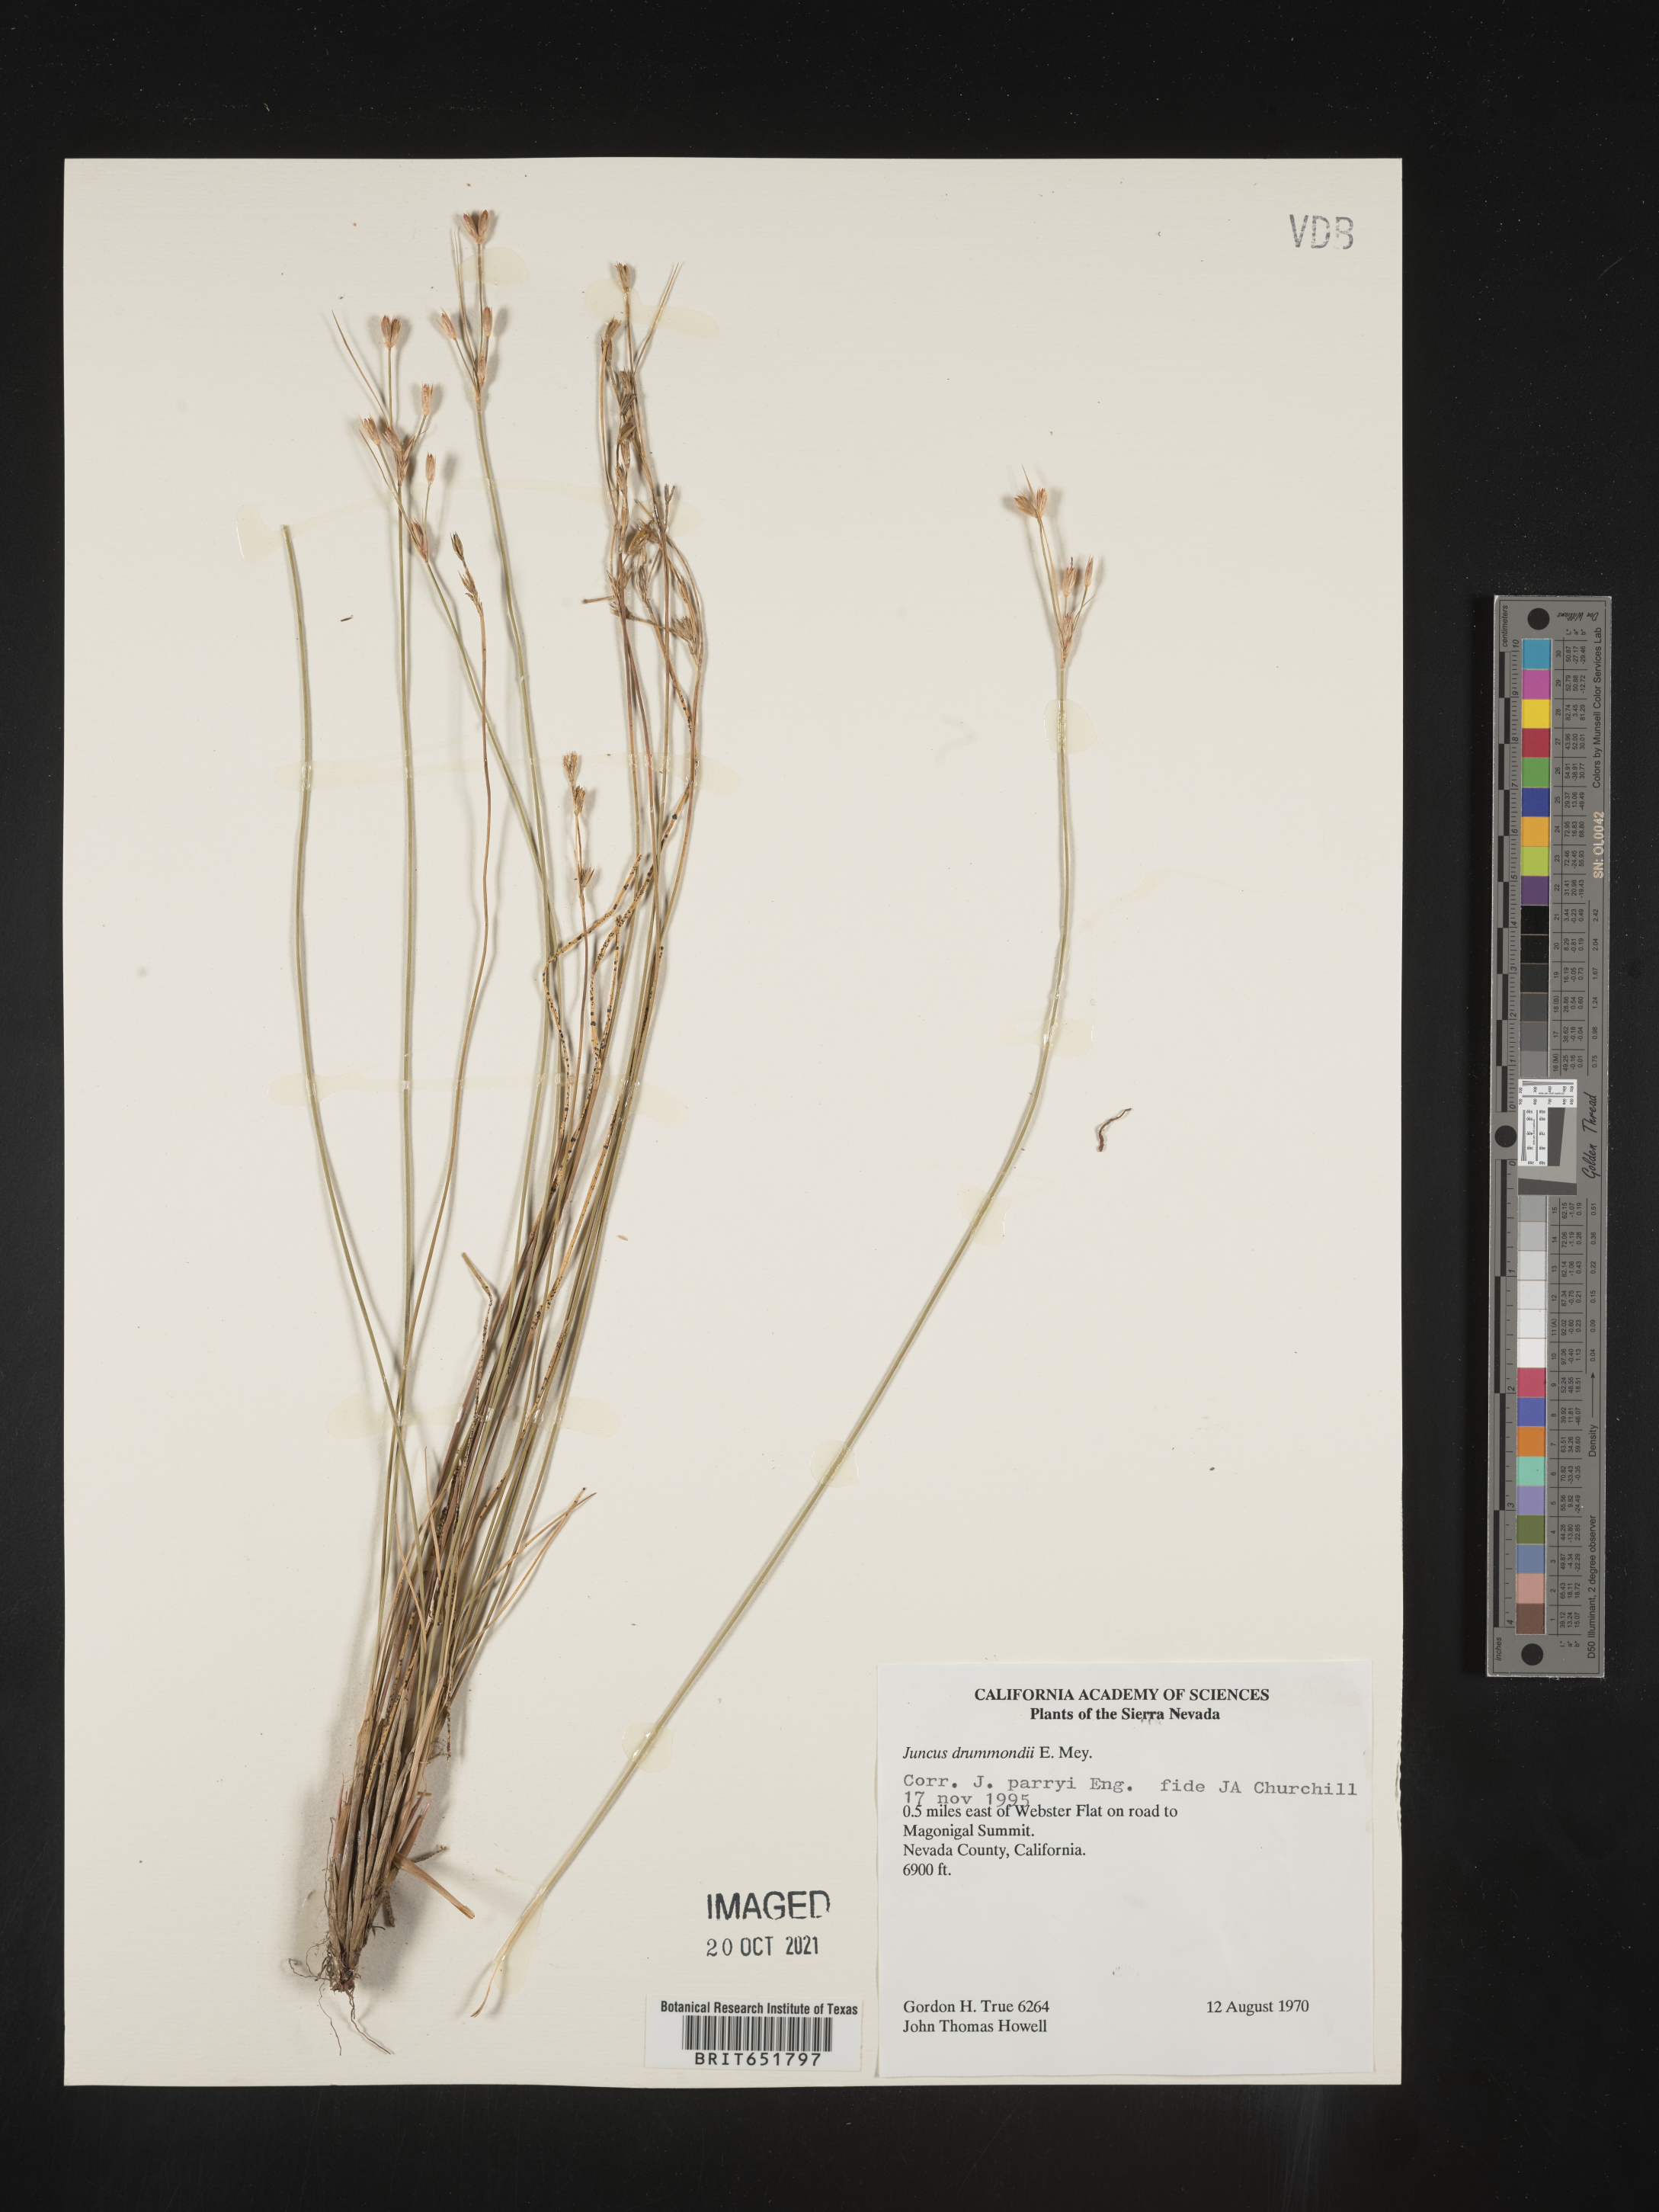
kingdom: Plantae
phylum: Tracheophyta
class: Liliopsida
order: Poales
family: Juncaceae
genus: Juncus
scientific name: Juncus drummondii
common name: Drummond's rush
